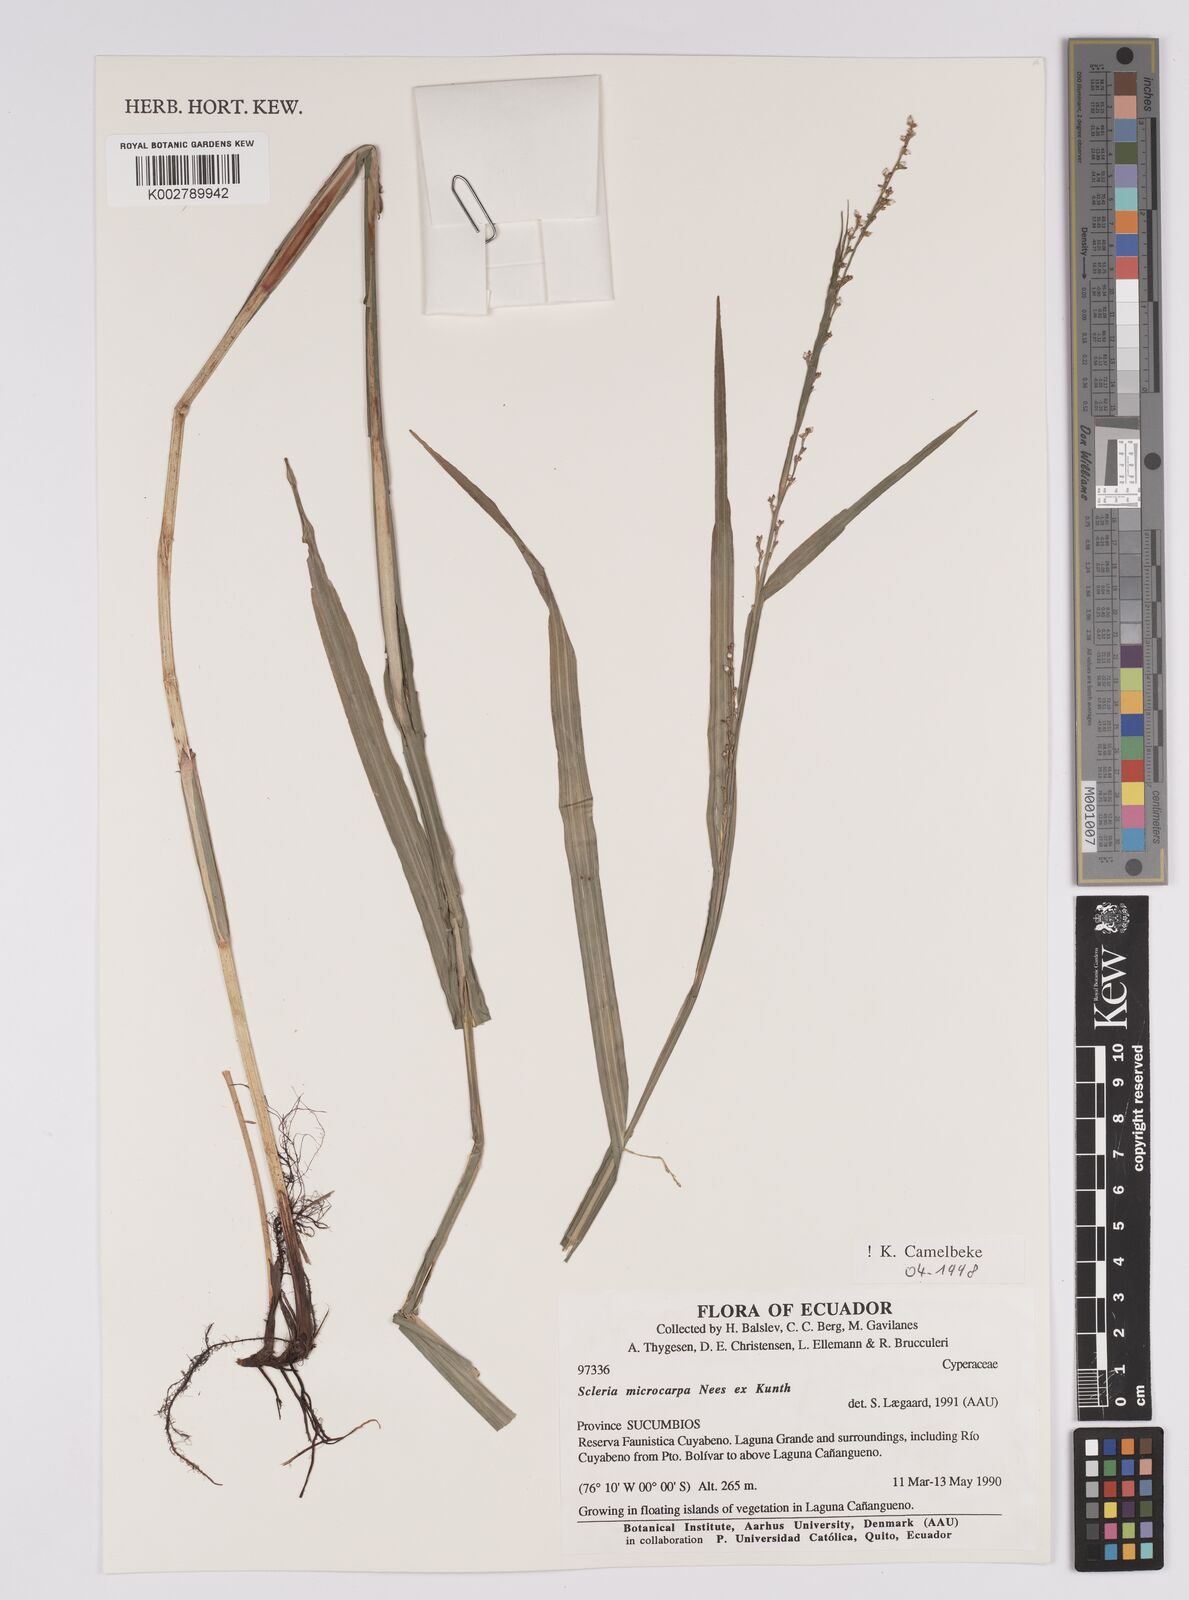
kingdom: Plantae
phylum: Tracheophyta
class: Liliopsida
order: Poales
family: Cyperaceae
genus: Scleria
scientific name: Scleria microcarpa
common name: Tropical nutrush
